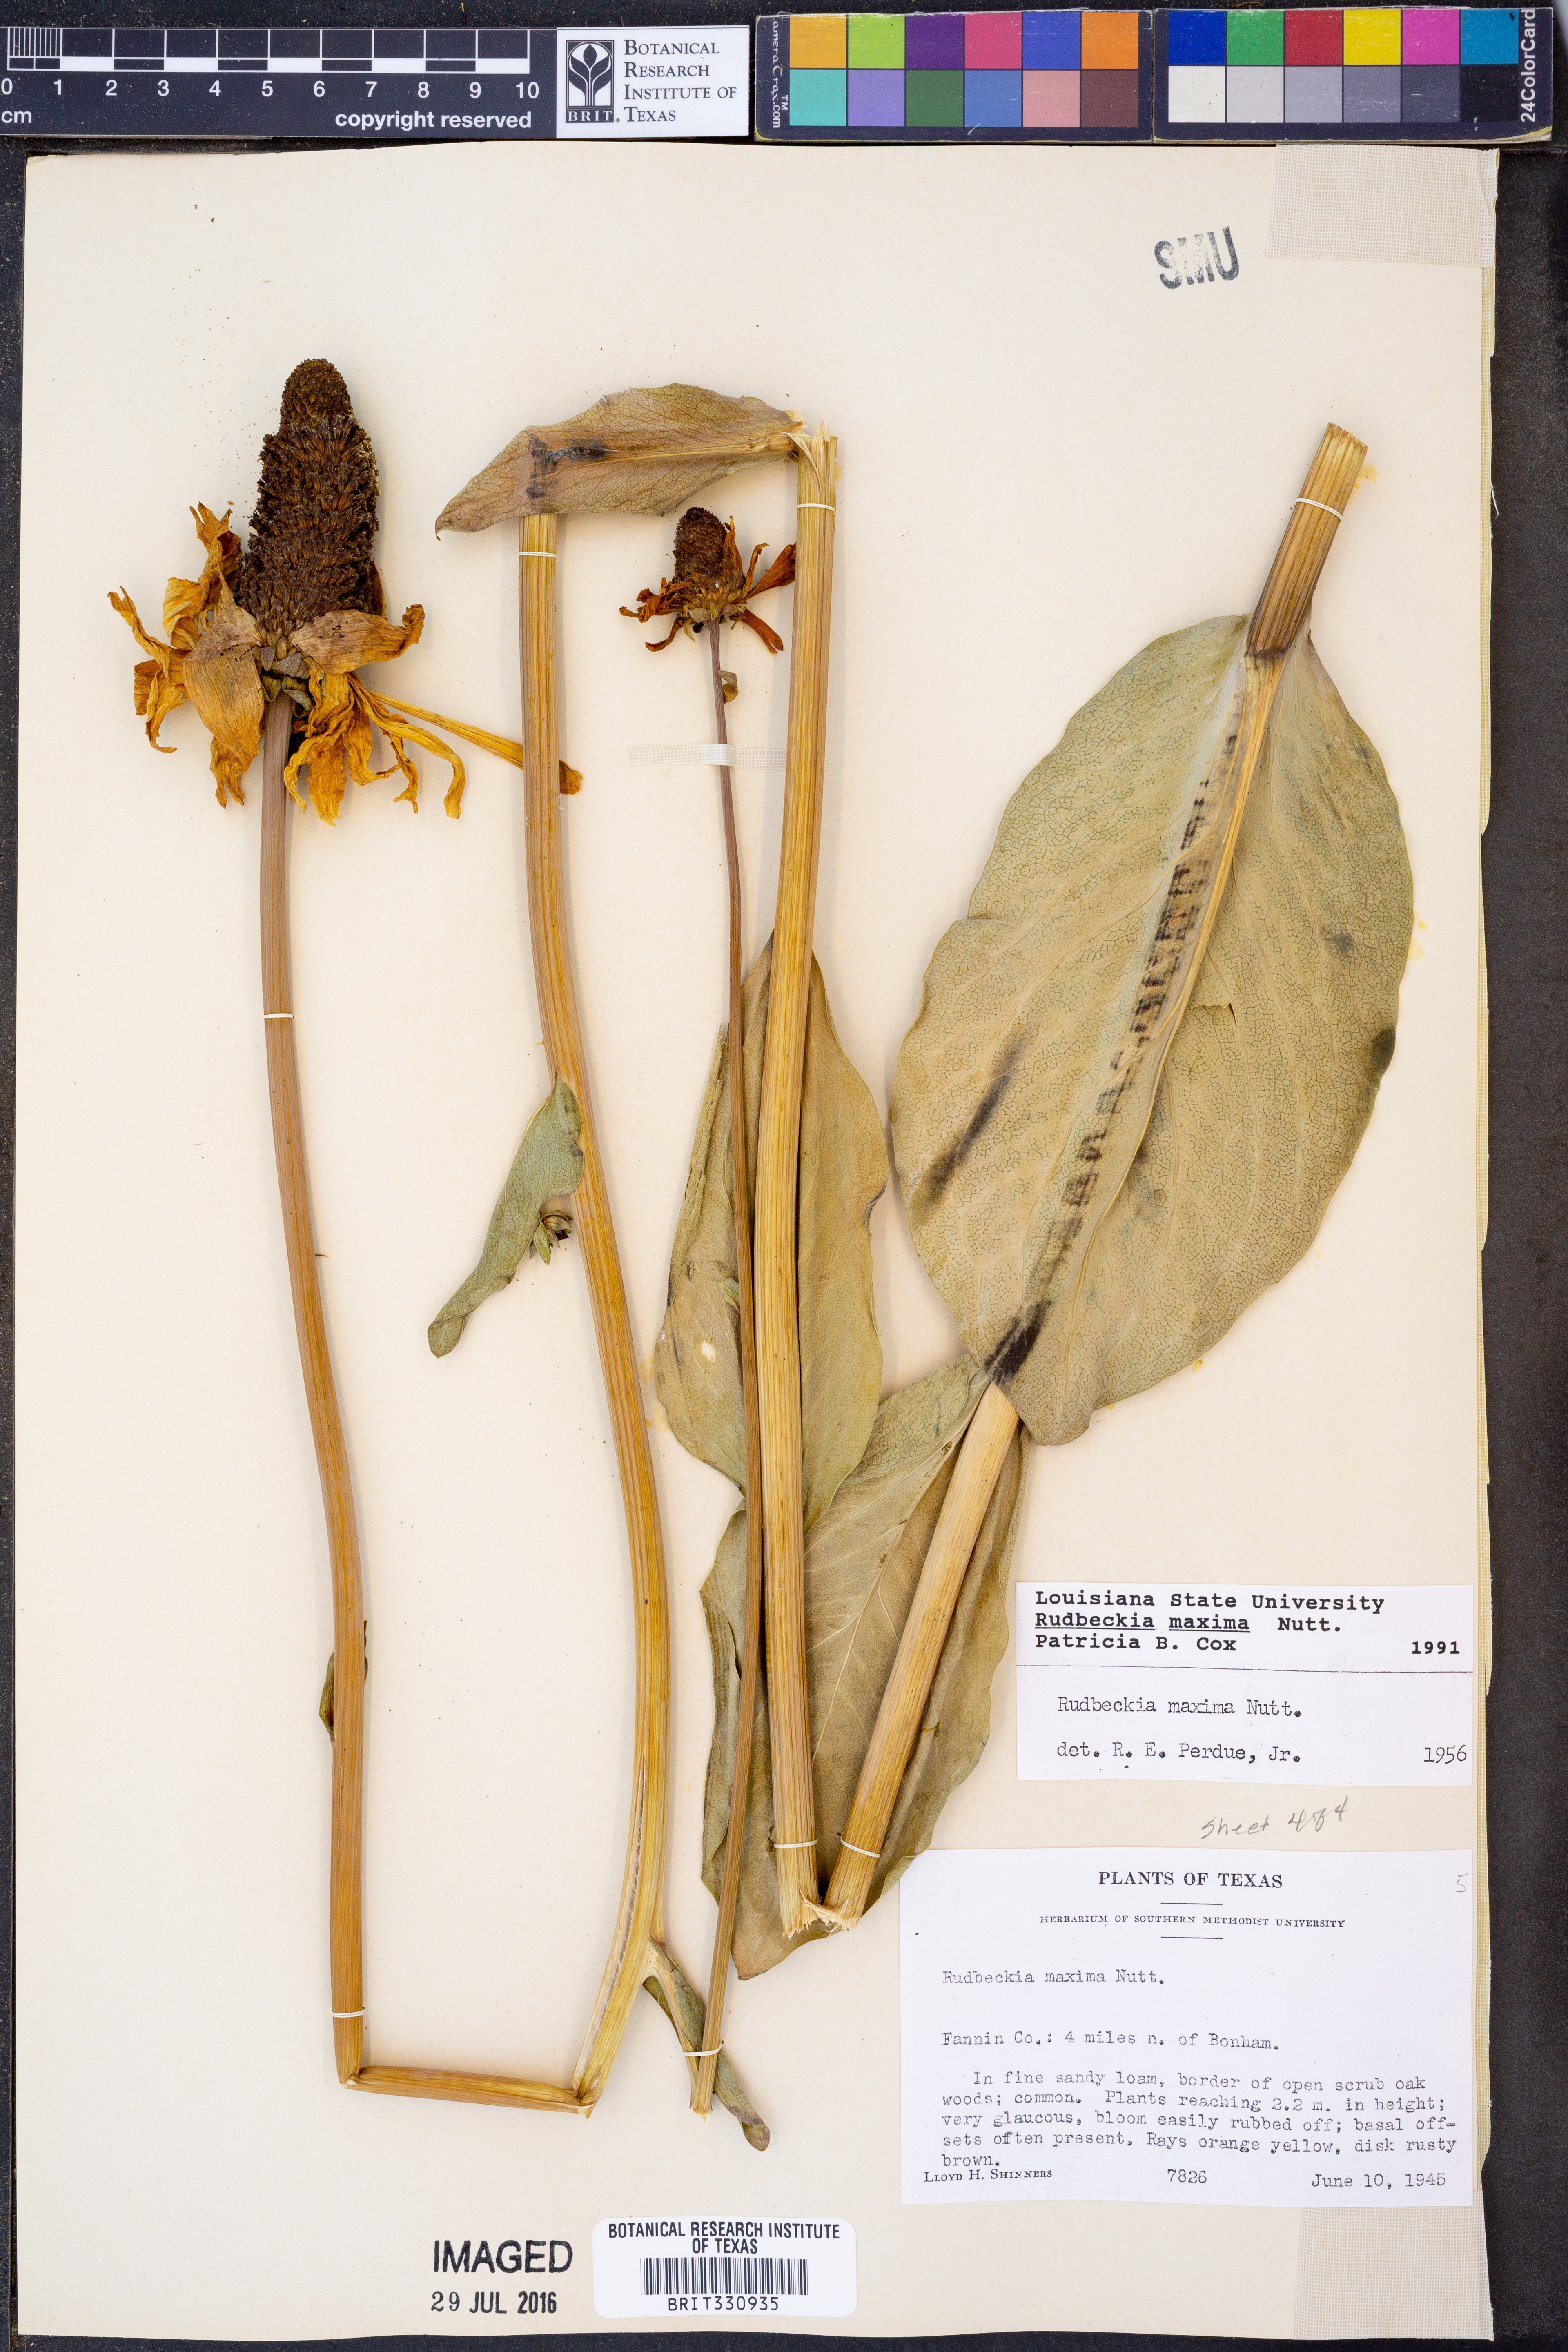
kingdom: Plantae
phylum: Tracheophyta
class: Magnoliopsida
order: Asterales
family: Asteraceae
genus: Rudbeckia
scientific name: Rudbeckia maxima
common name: Cabbage coneflower
